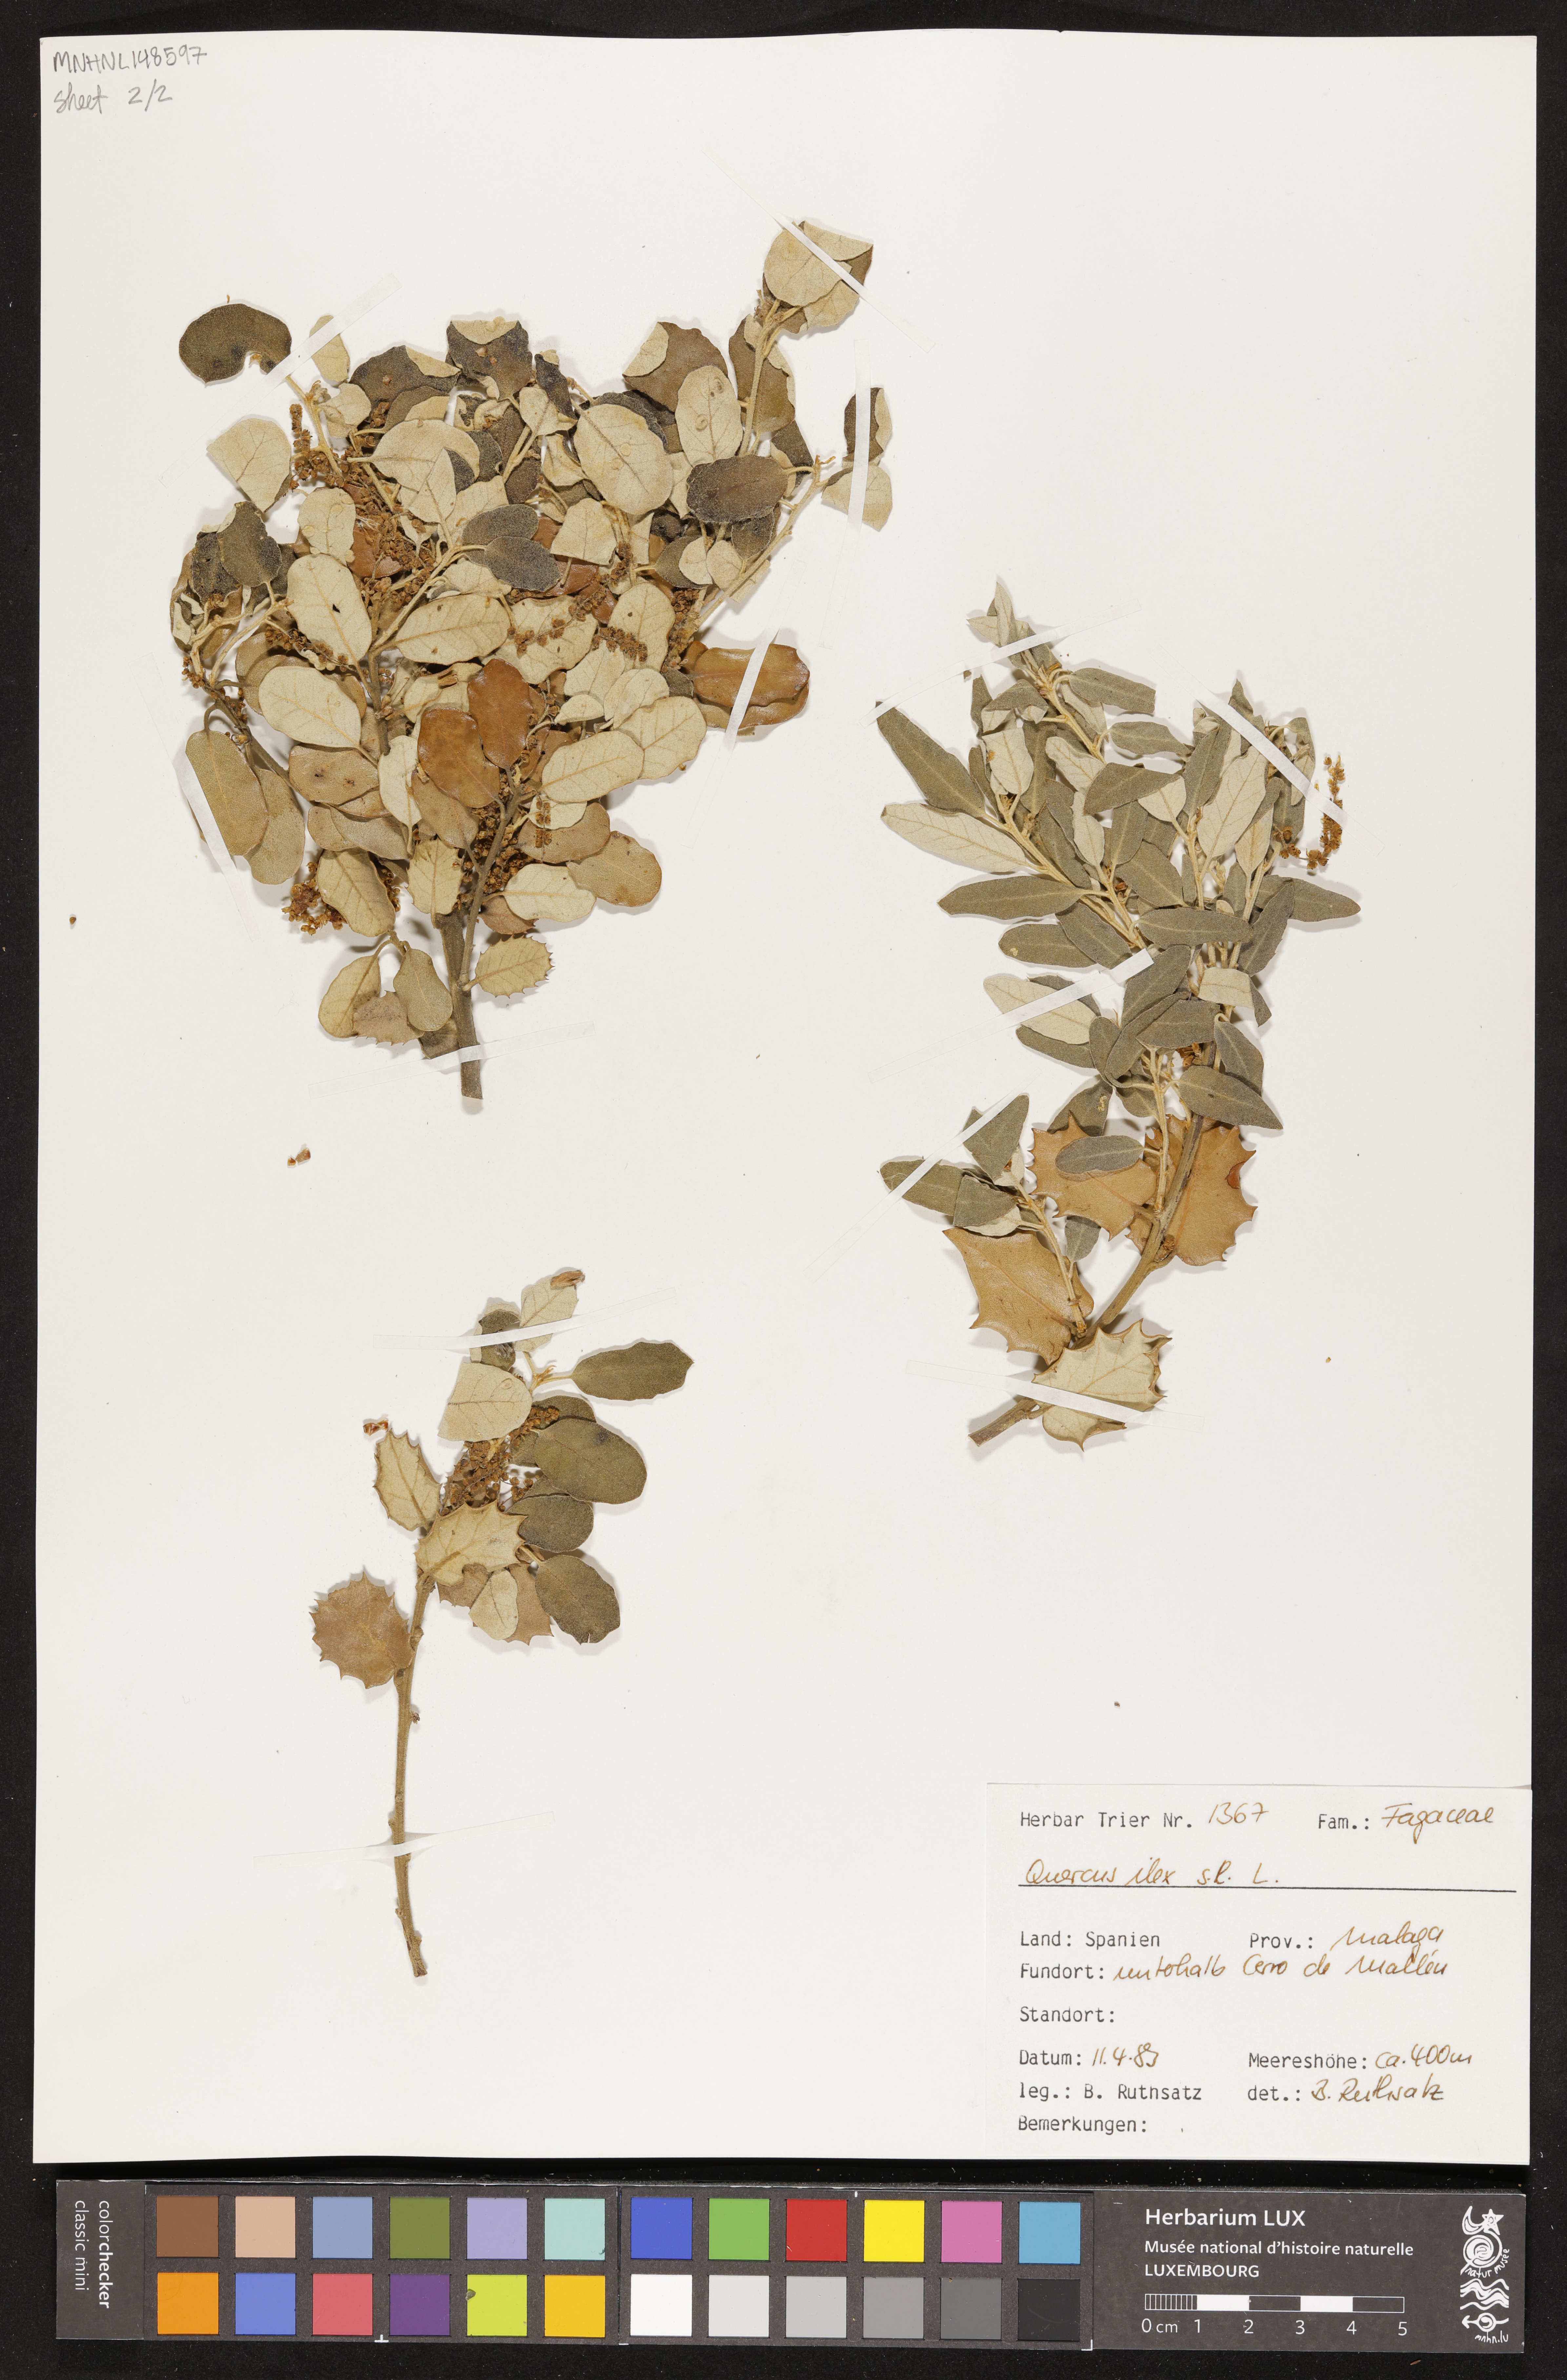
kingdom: Plantae
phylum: Tracheophyta
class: Magnoliopsida
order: Fagales
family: Fagaceae
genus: Quercus
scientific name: Quercus ilex
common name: Evergreen oak
